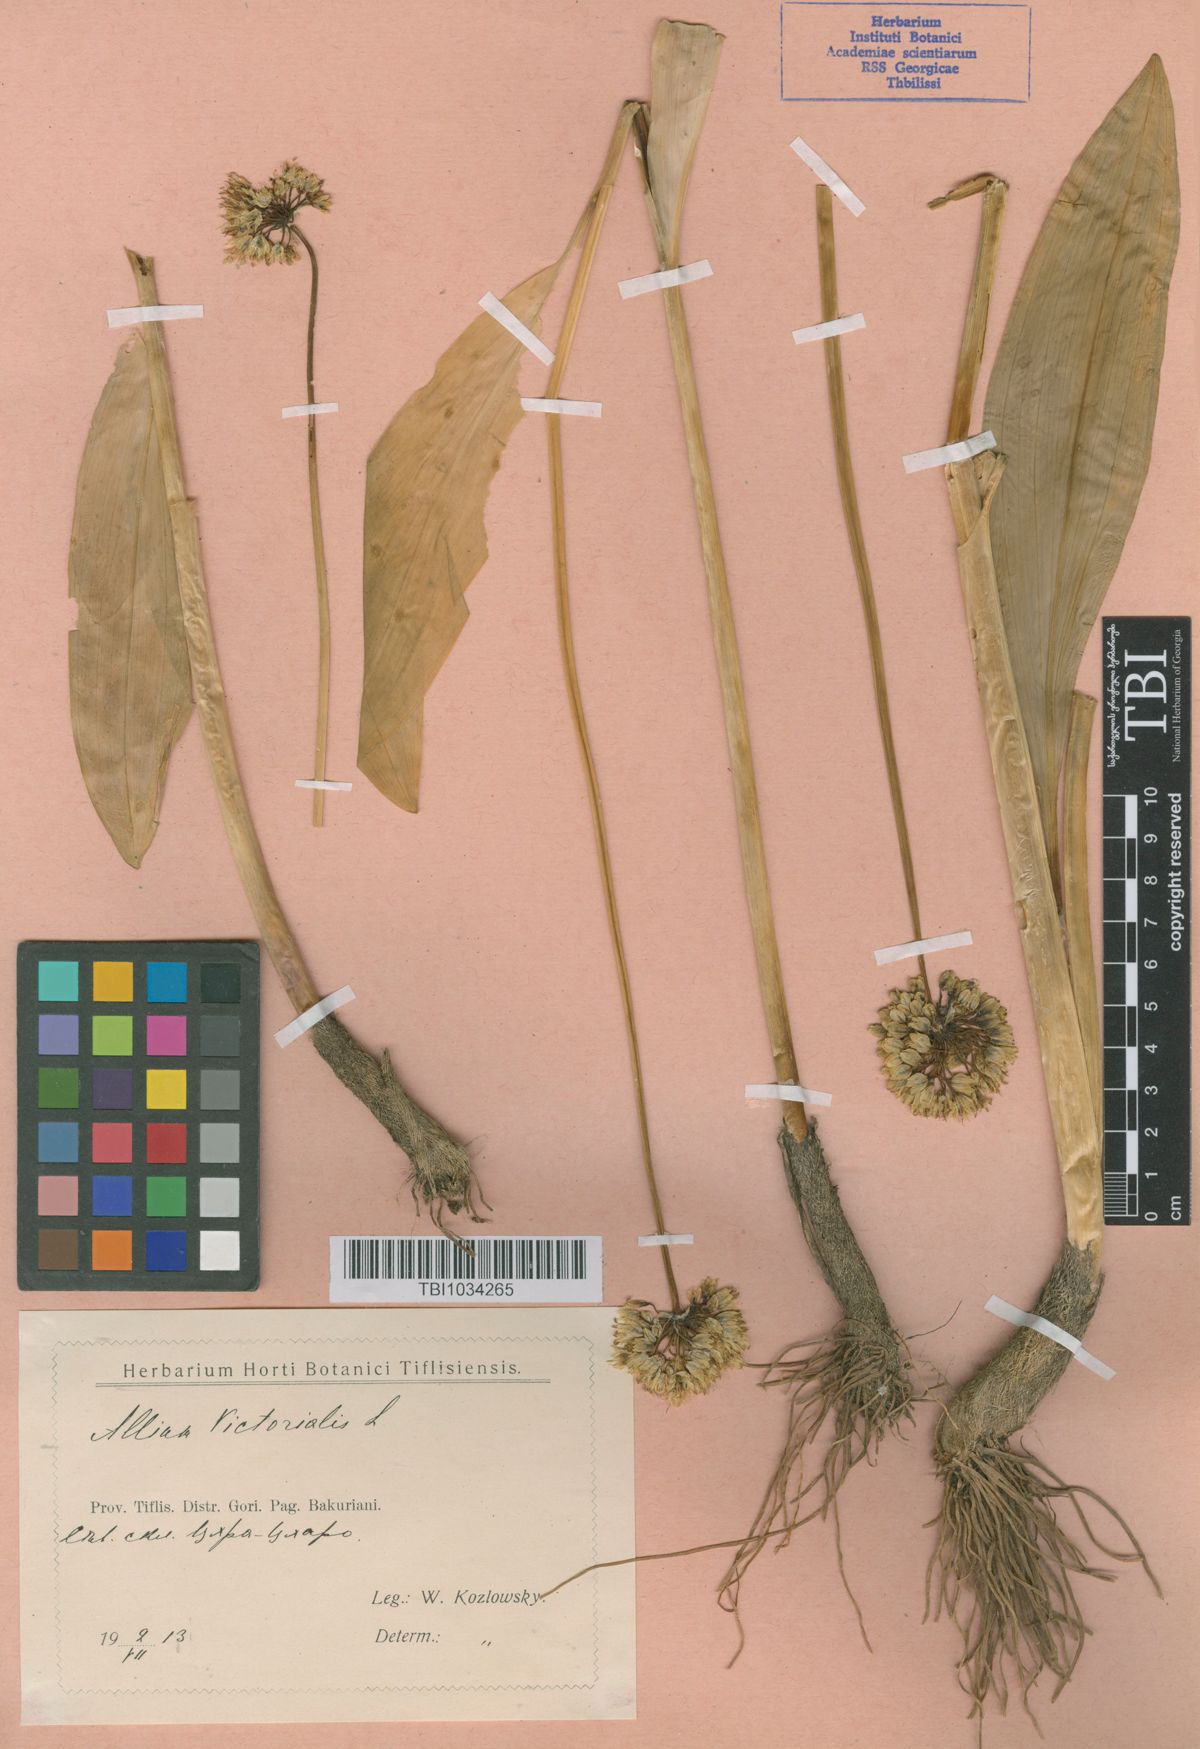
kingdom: Plantae
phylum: Tracheophyta
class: Liliopsida
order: Asparagales
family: Amaryllidaceae
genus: Allium
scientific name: Allium victorialis
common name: Alpine leek
